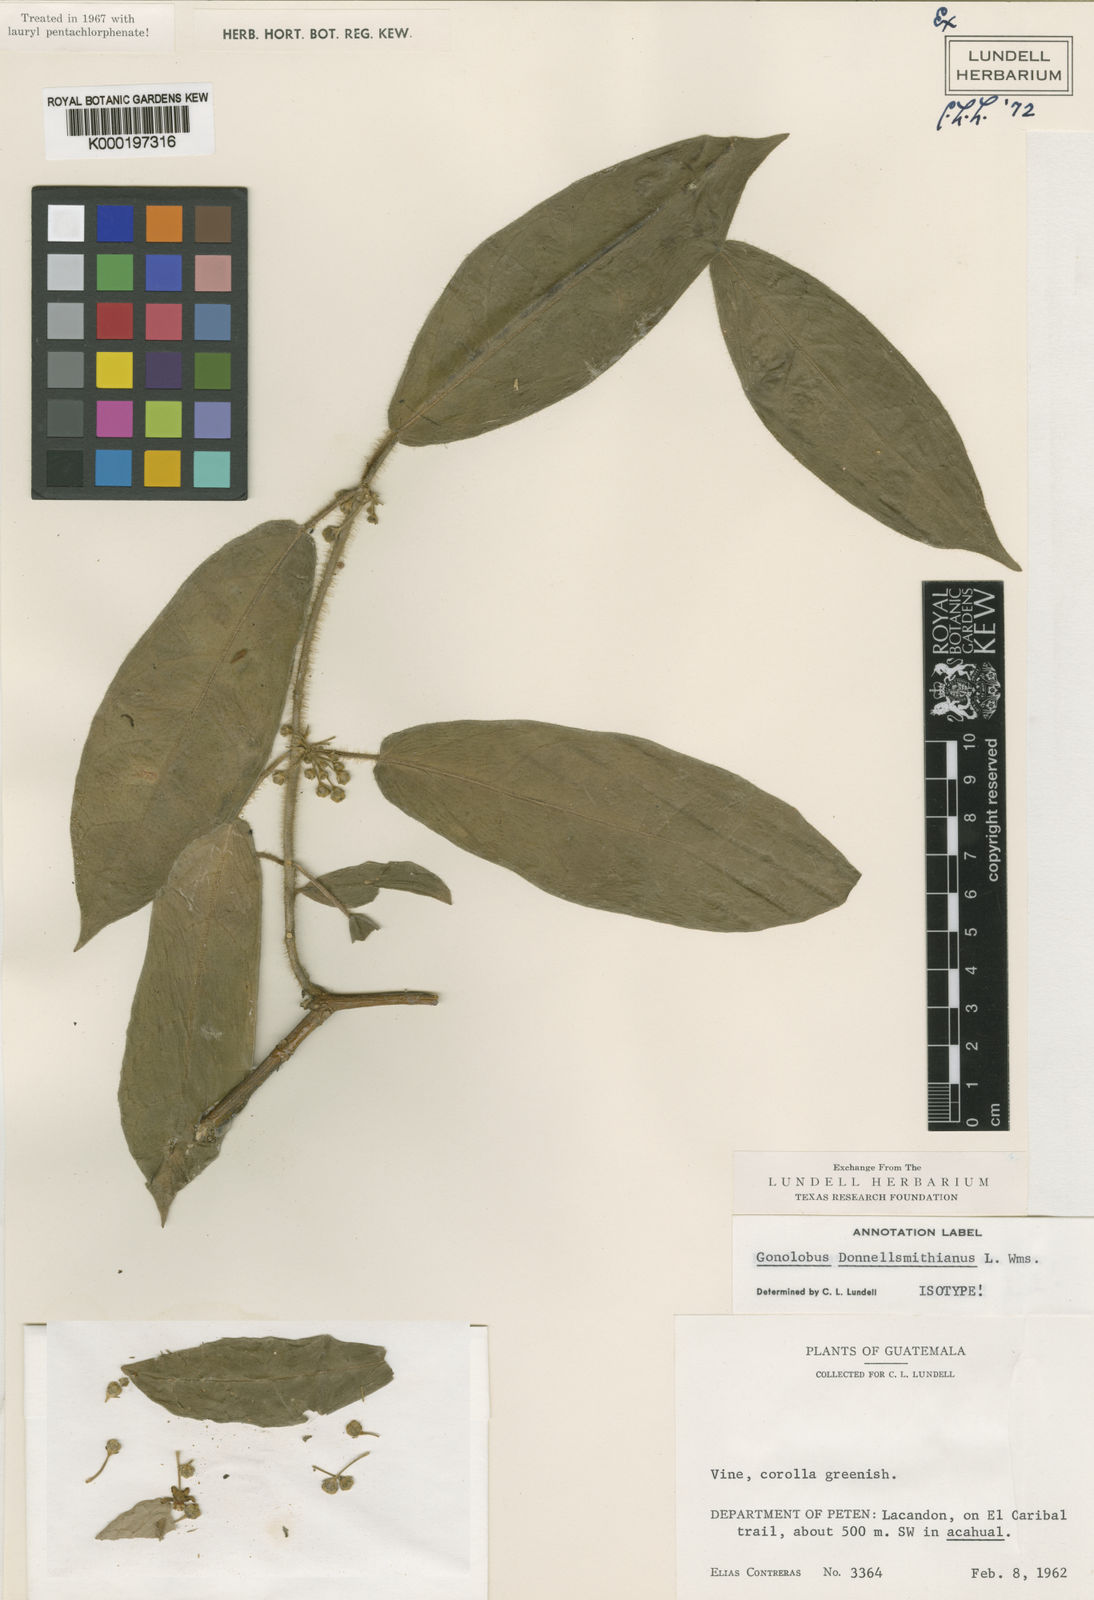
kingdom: Plantae
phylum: Tracheophyta
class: Magnoliopsida
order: Gentianales
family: Apocynaceae
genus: Gonolobus
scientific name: Gonolobus dasystephanus
